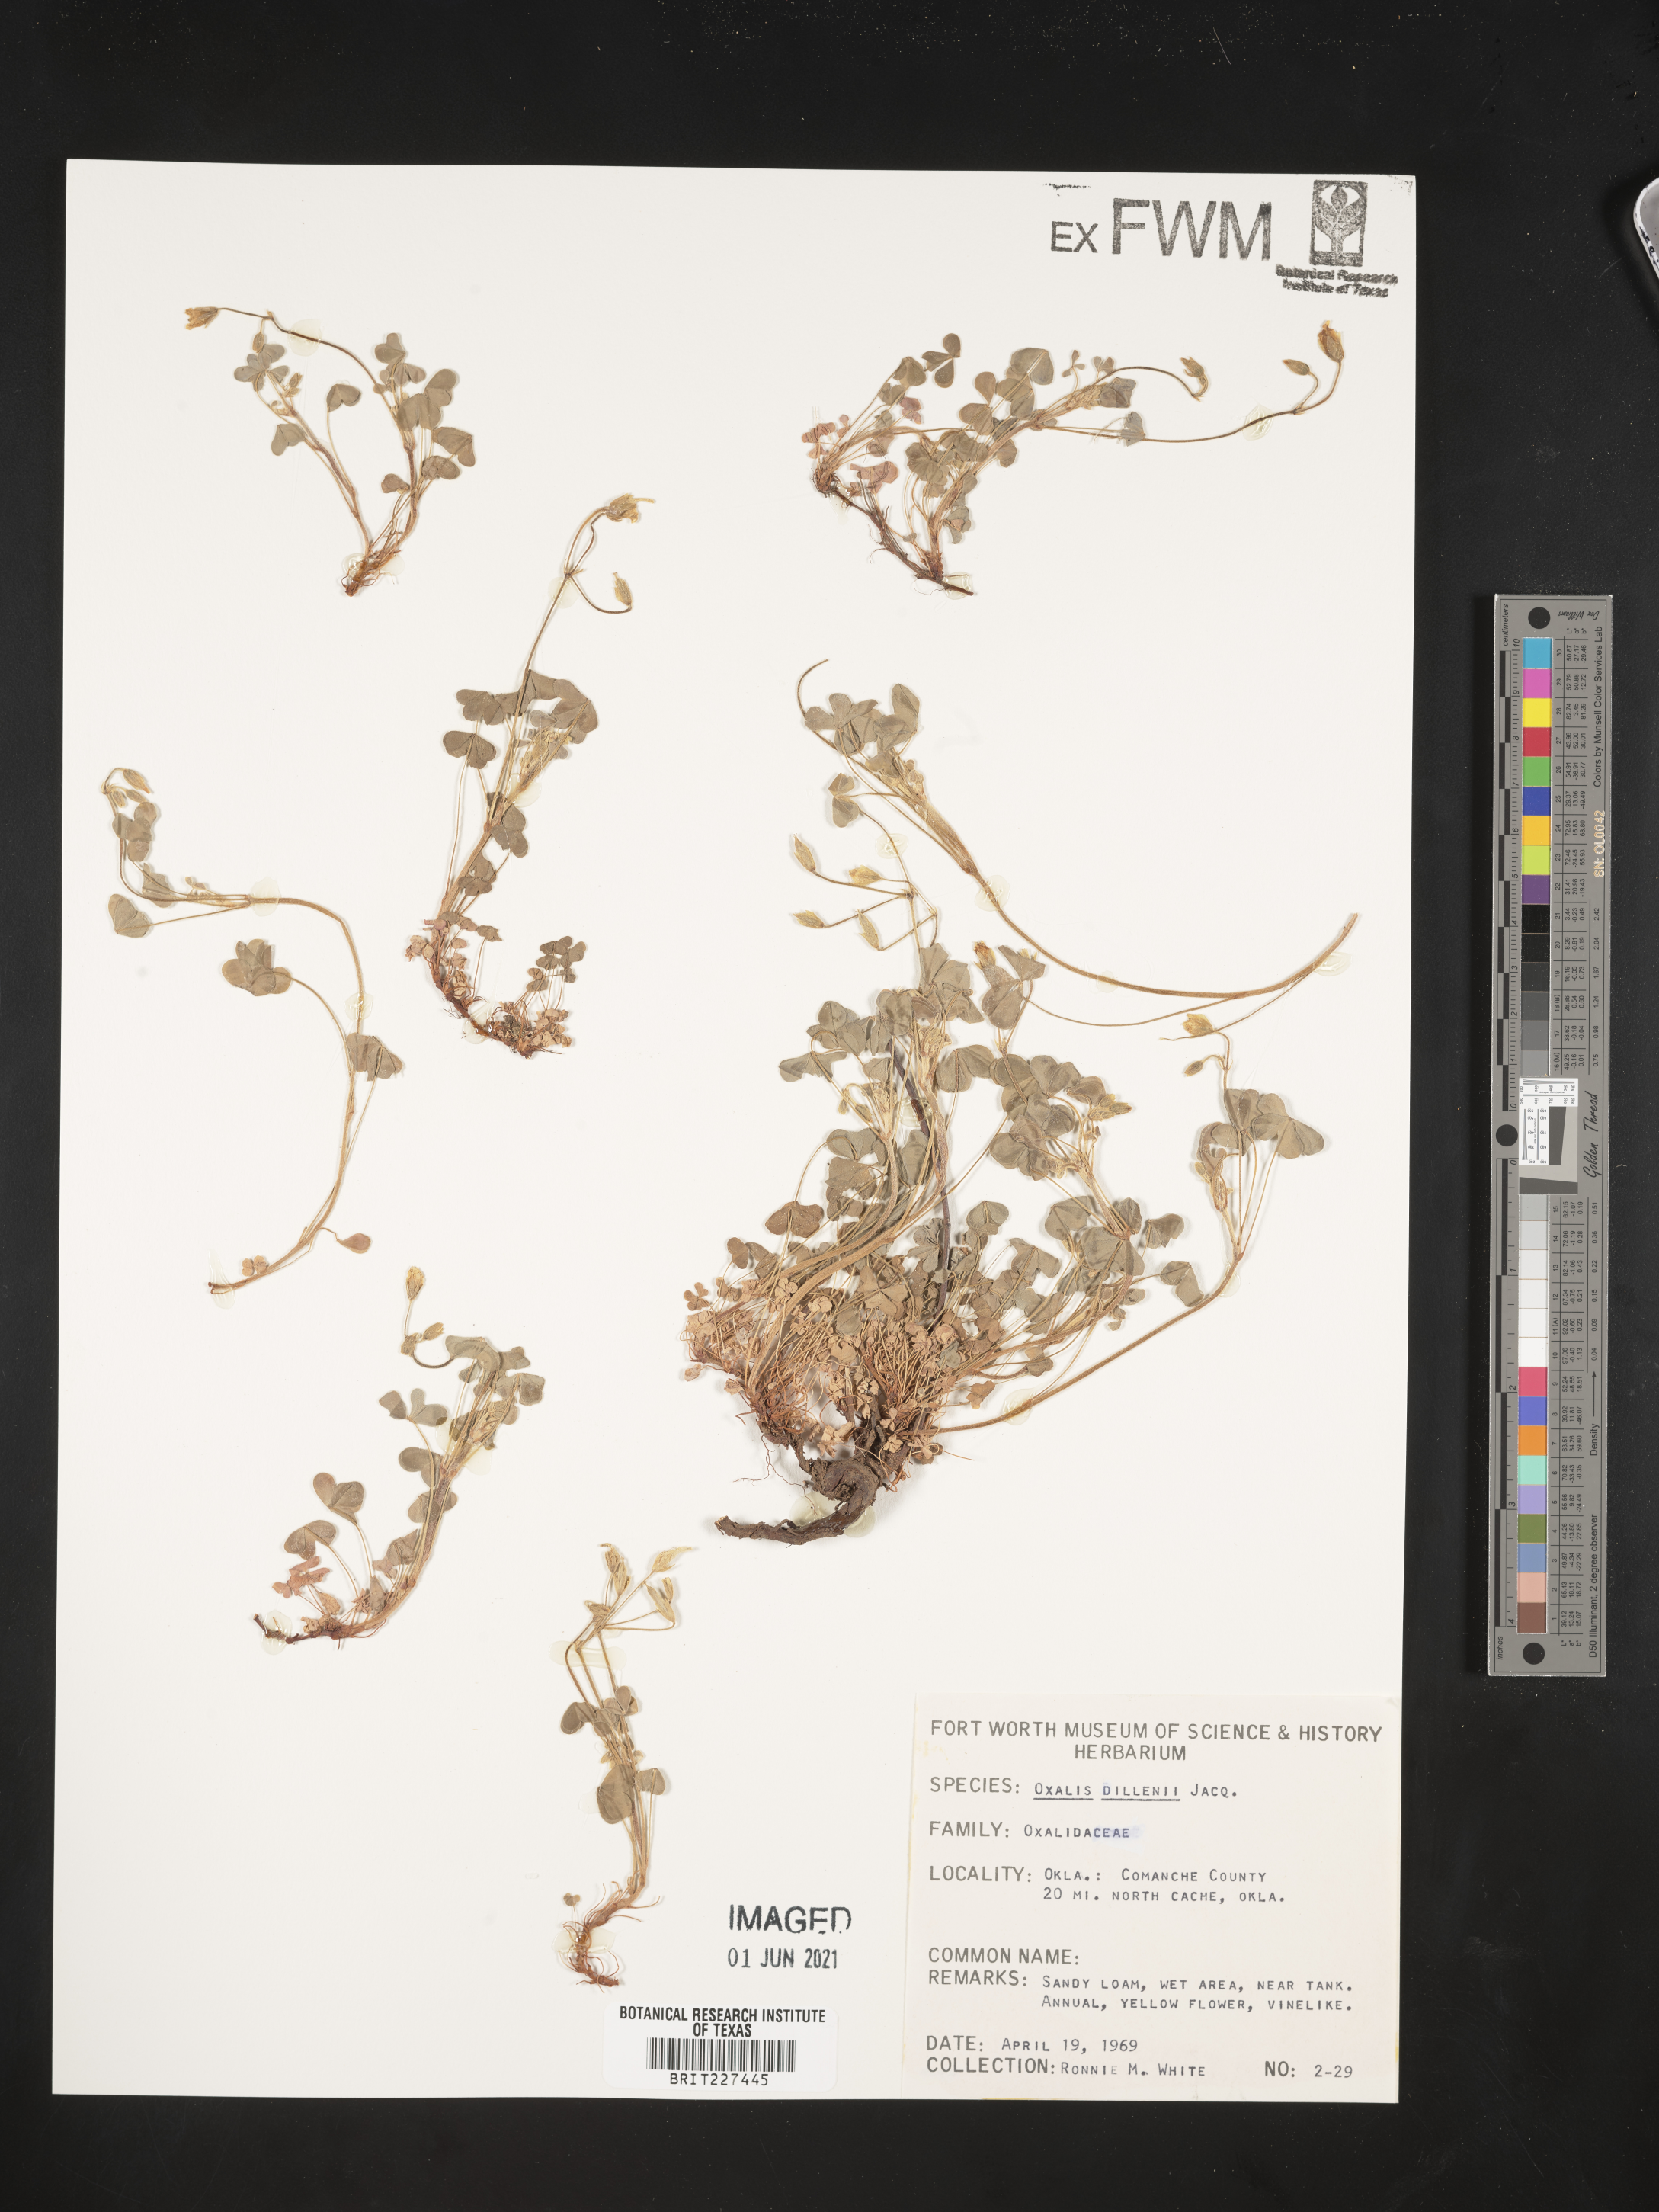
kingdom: Plantae
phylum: Tracheophyta
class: Magnoliopsida
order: Oxalidales
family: Oxalidaceae
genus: Oxalis
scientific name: Oxalis dillenii
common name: Sussex yellow-sorrel
